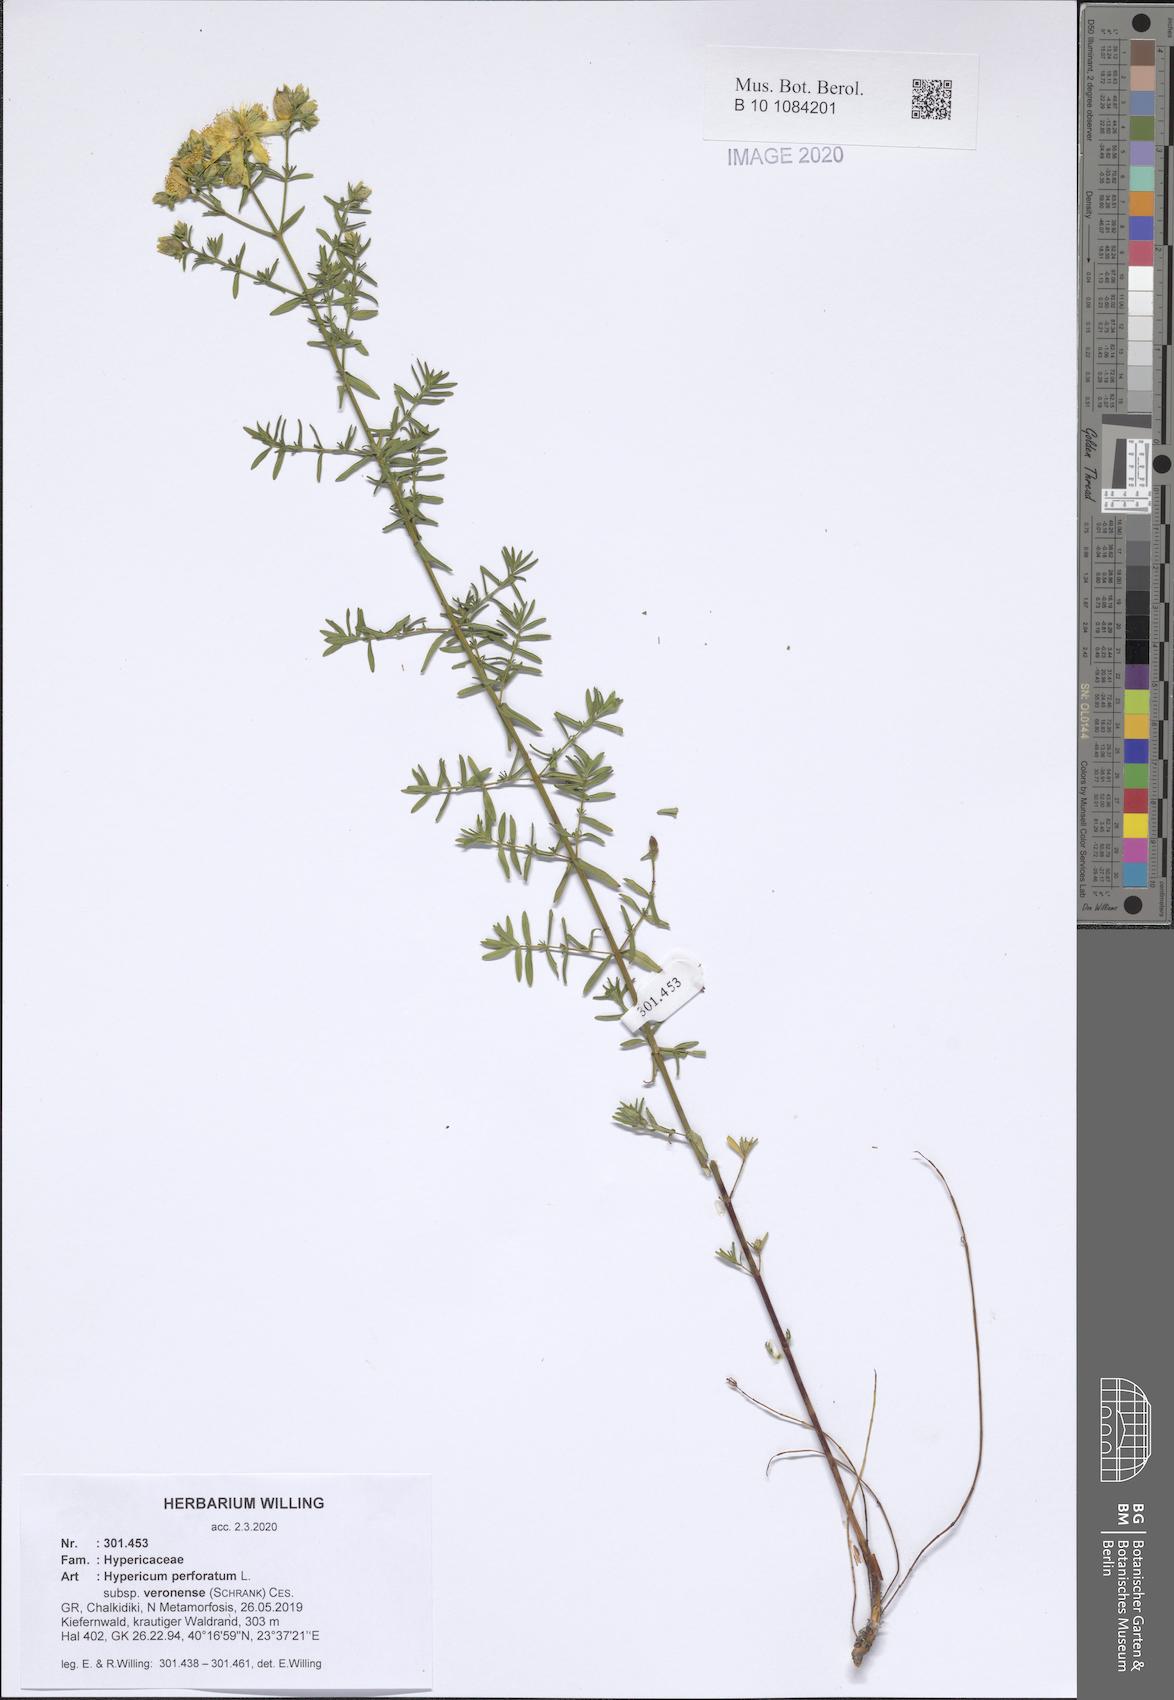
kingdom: Plantae
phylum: Tracheophyta
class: Magnoliopsida
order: Malpighiales
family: Hypericaceae
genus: Hypericum
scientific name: Hypericum veronense
